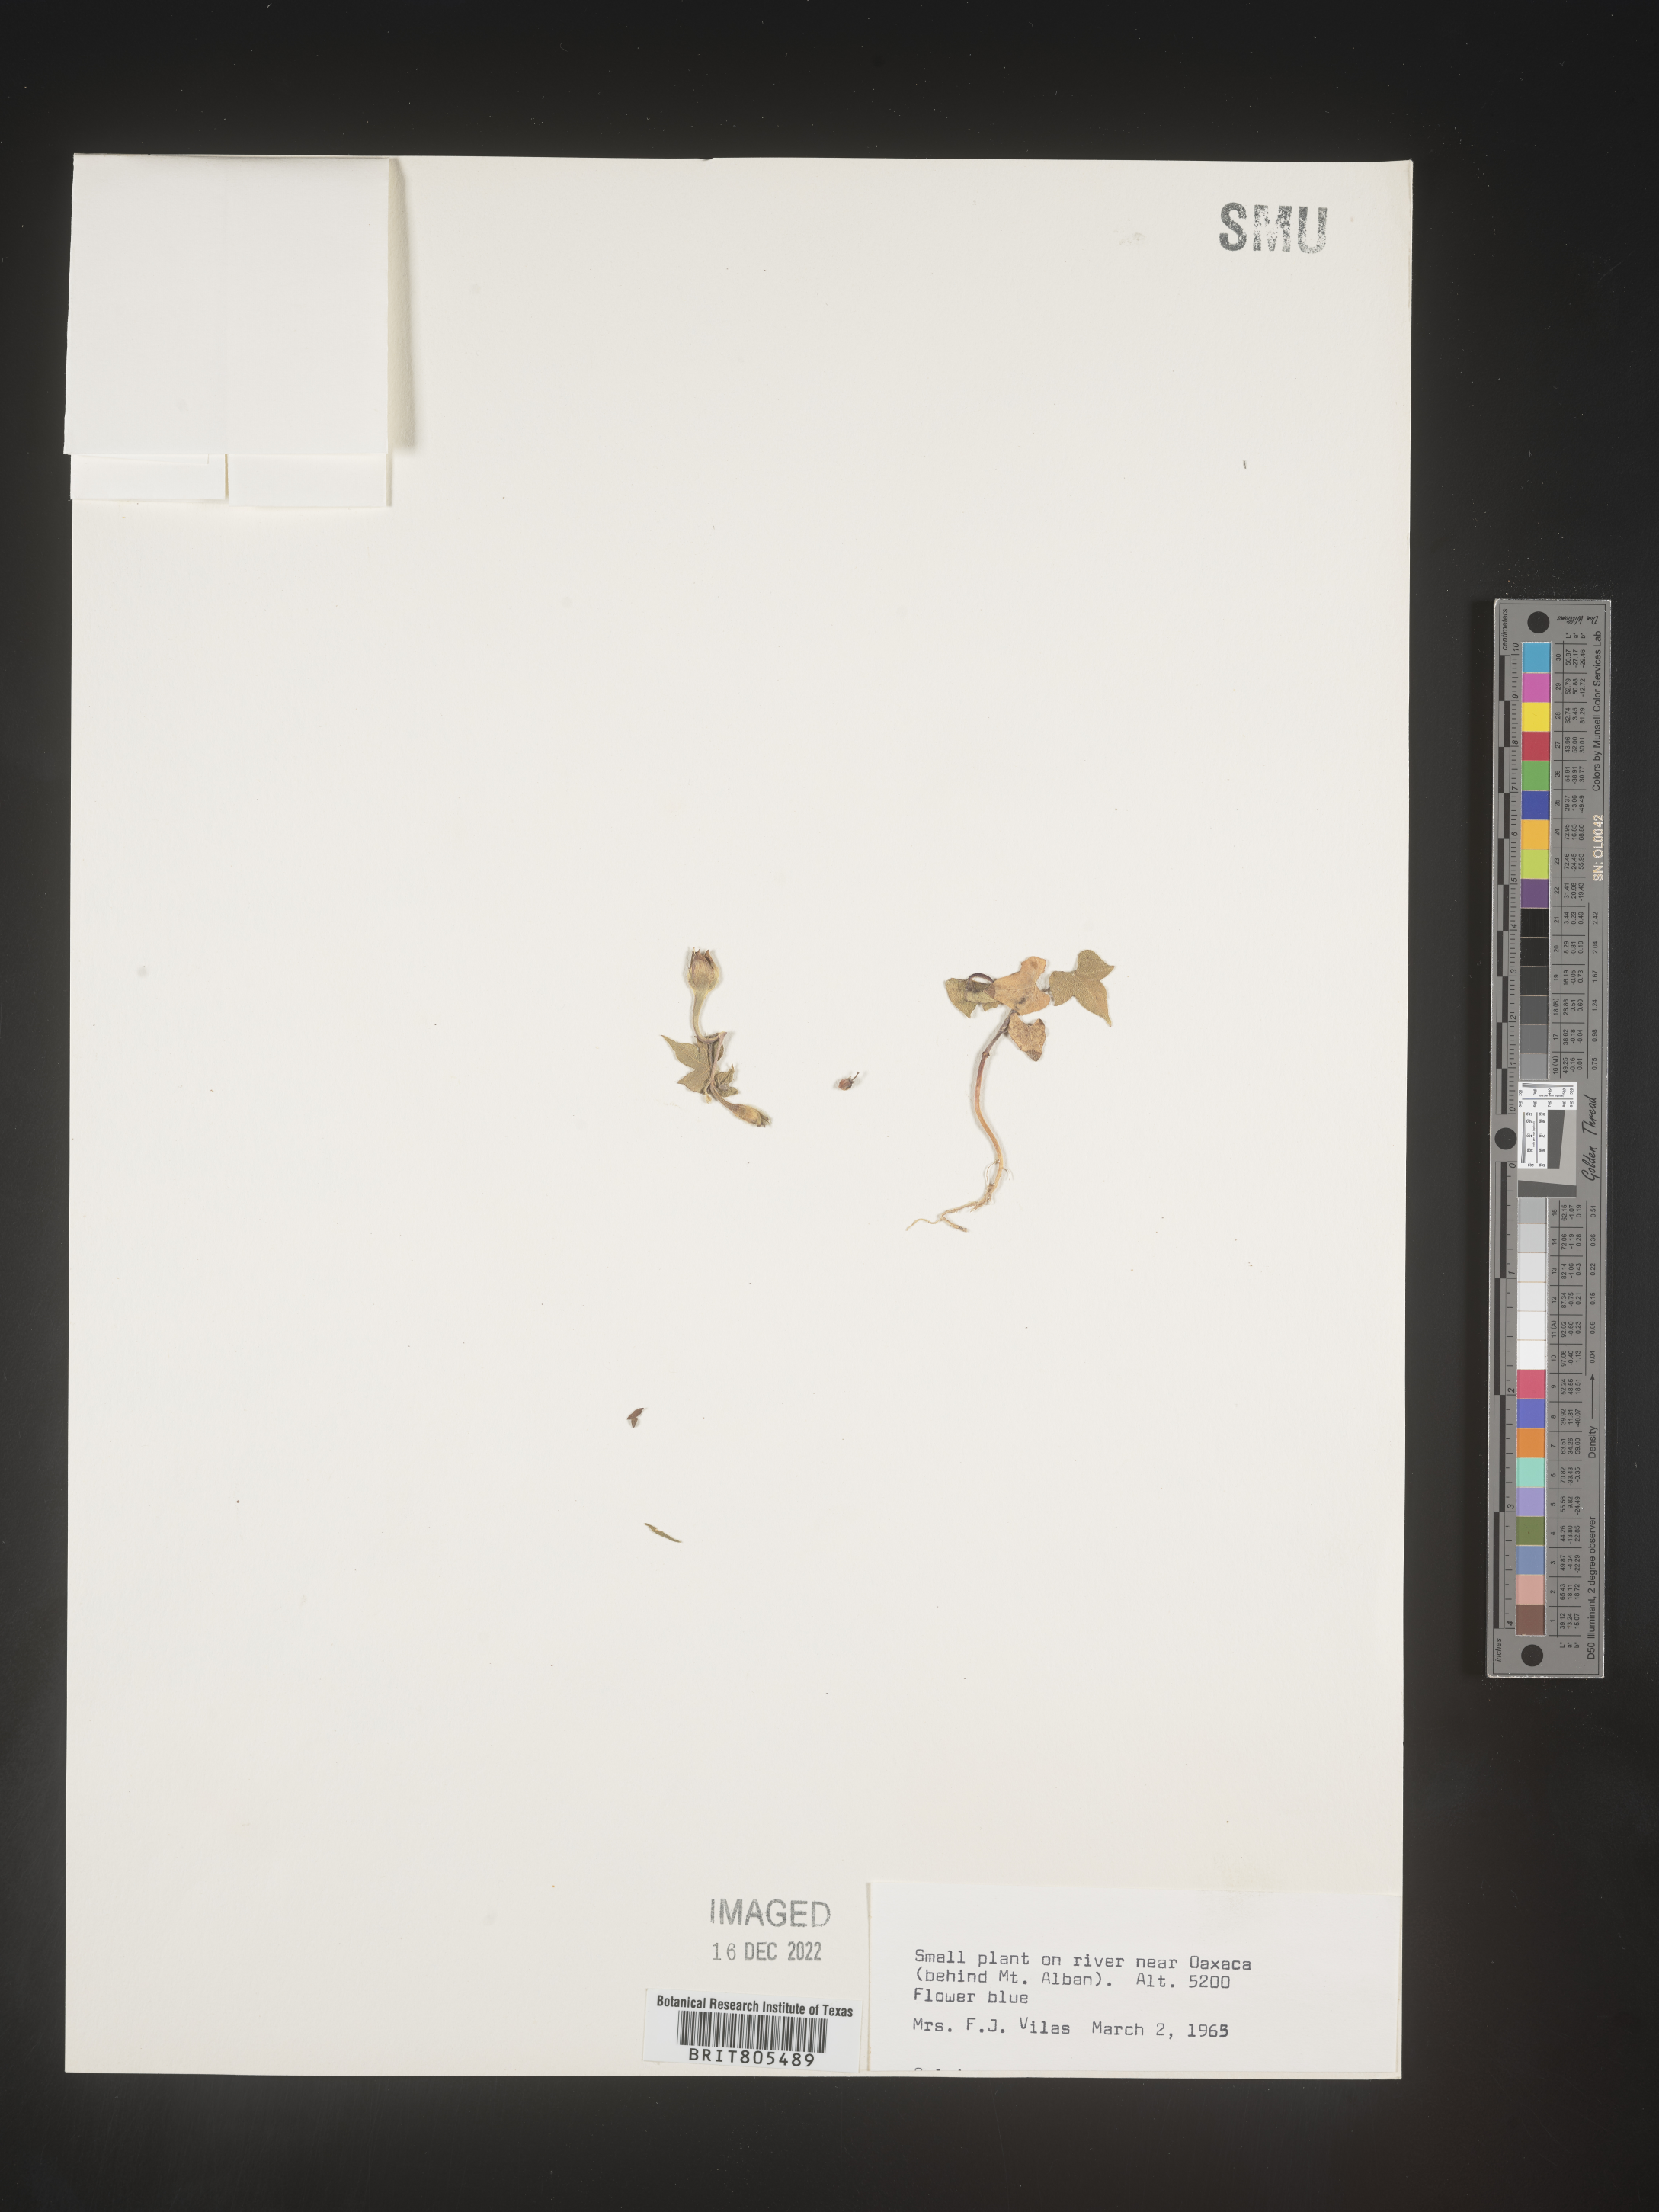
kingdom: Plantae
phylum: Tracheophyta
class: Magnoliopsida
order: Solanales
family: Convolvulaceae
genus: Ipomoea
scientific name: Ipomoea
